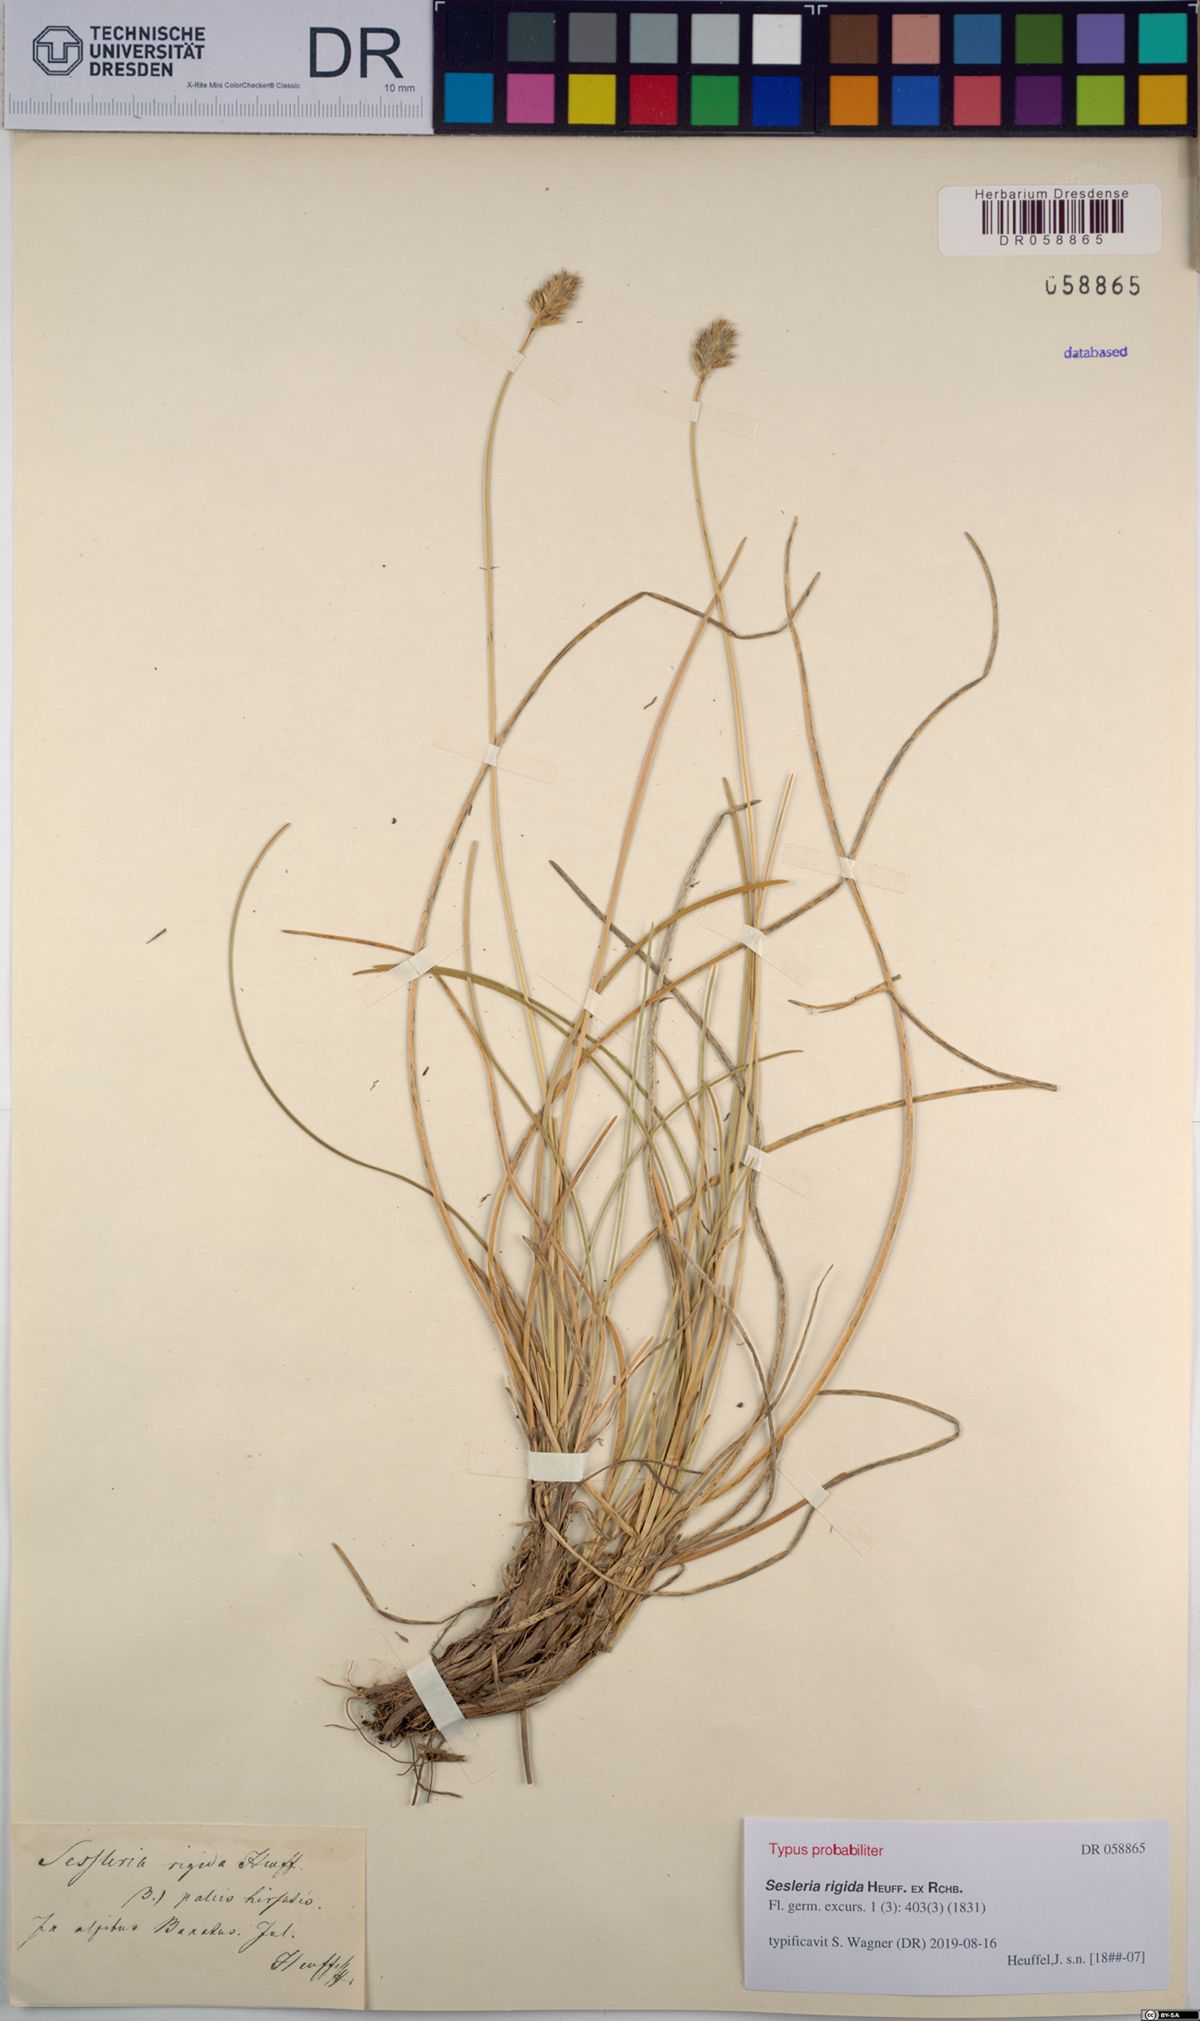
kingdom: Plantae
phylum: Tracheophyta
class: Liliopsida
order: Poales
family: Poaceae
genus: Sesleria
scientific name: Sesleria rigida
